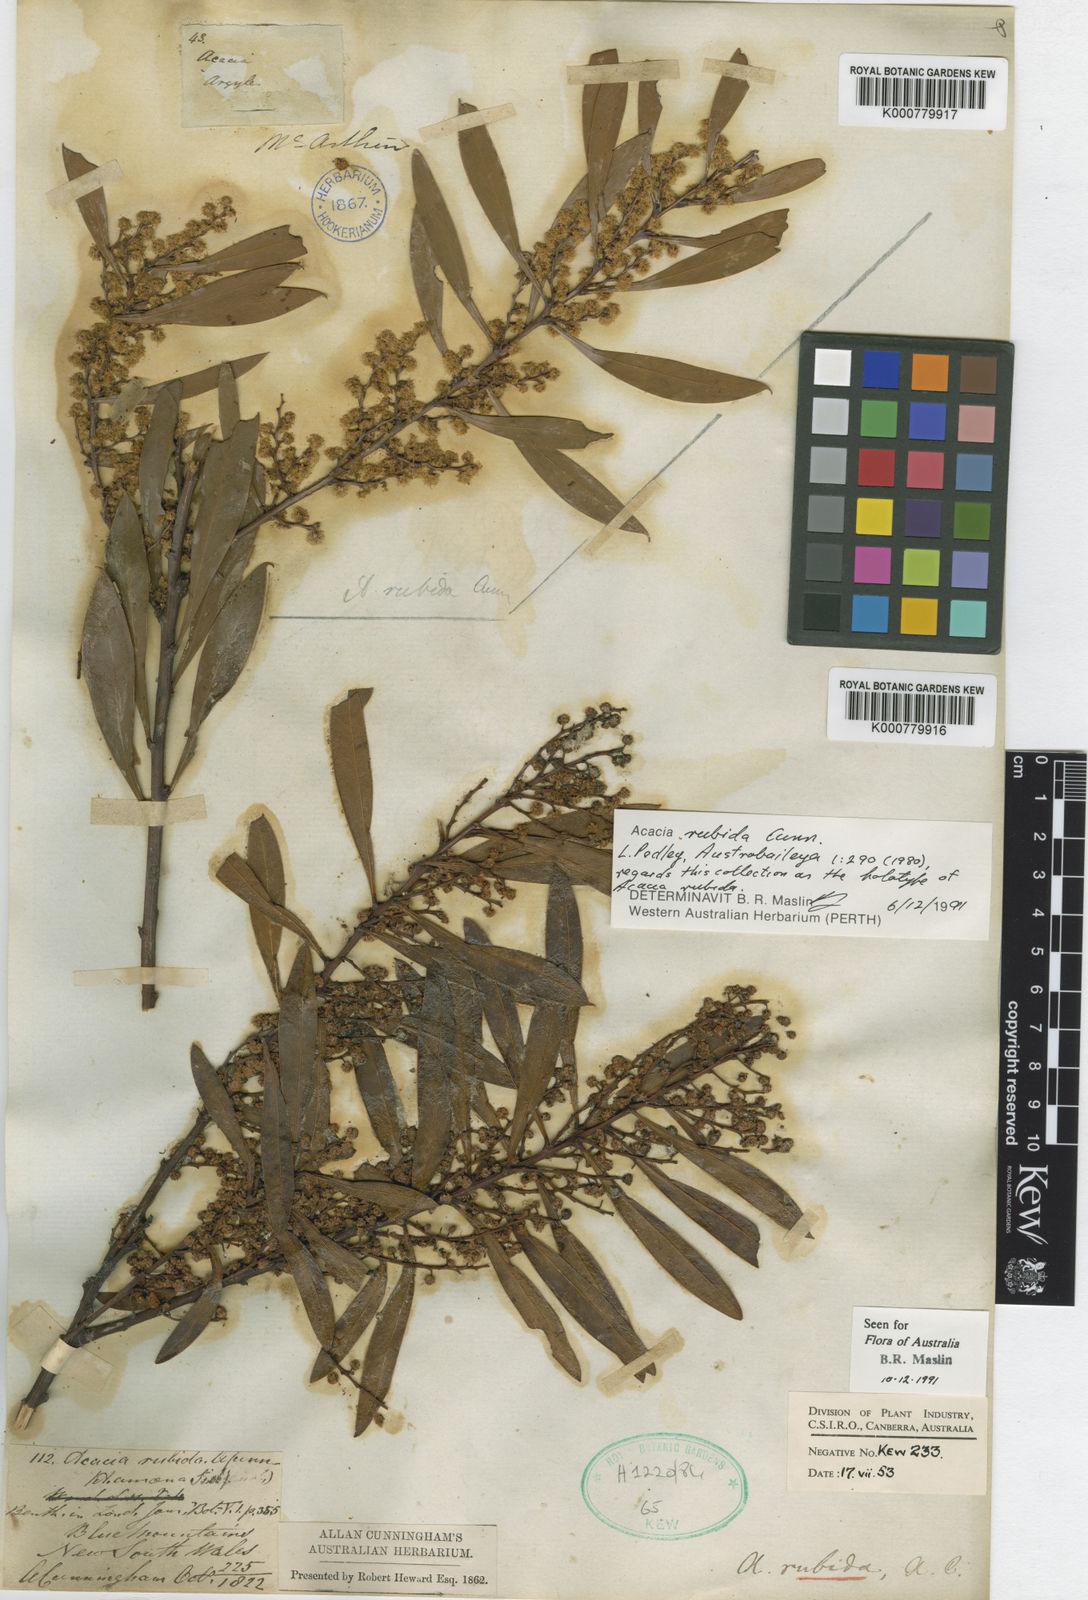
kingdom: Plantae
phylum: Tracheophyta
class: Magnoliopsida
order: Fabales
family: Fabaceae
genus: Acacia
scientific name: Acacia rubida
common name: Red leaf wattle
